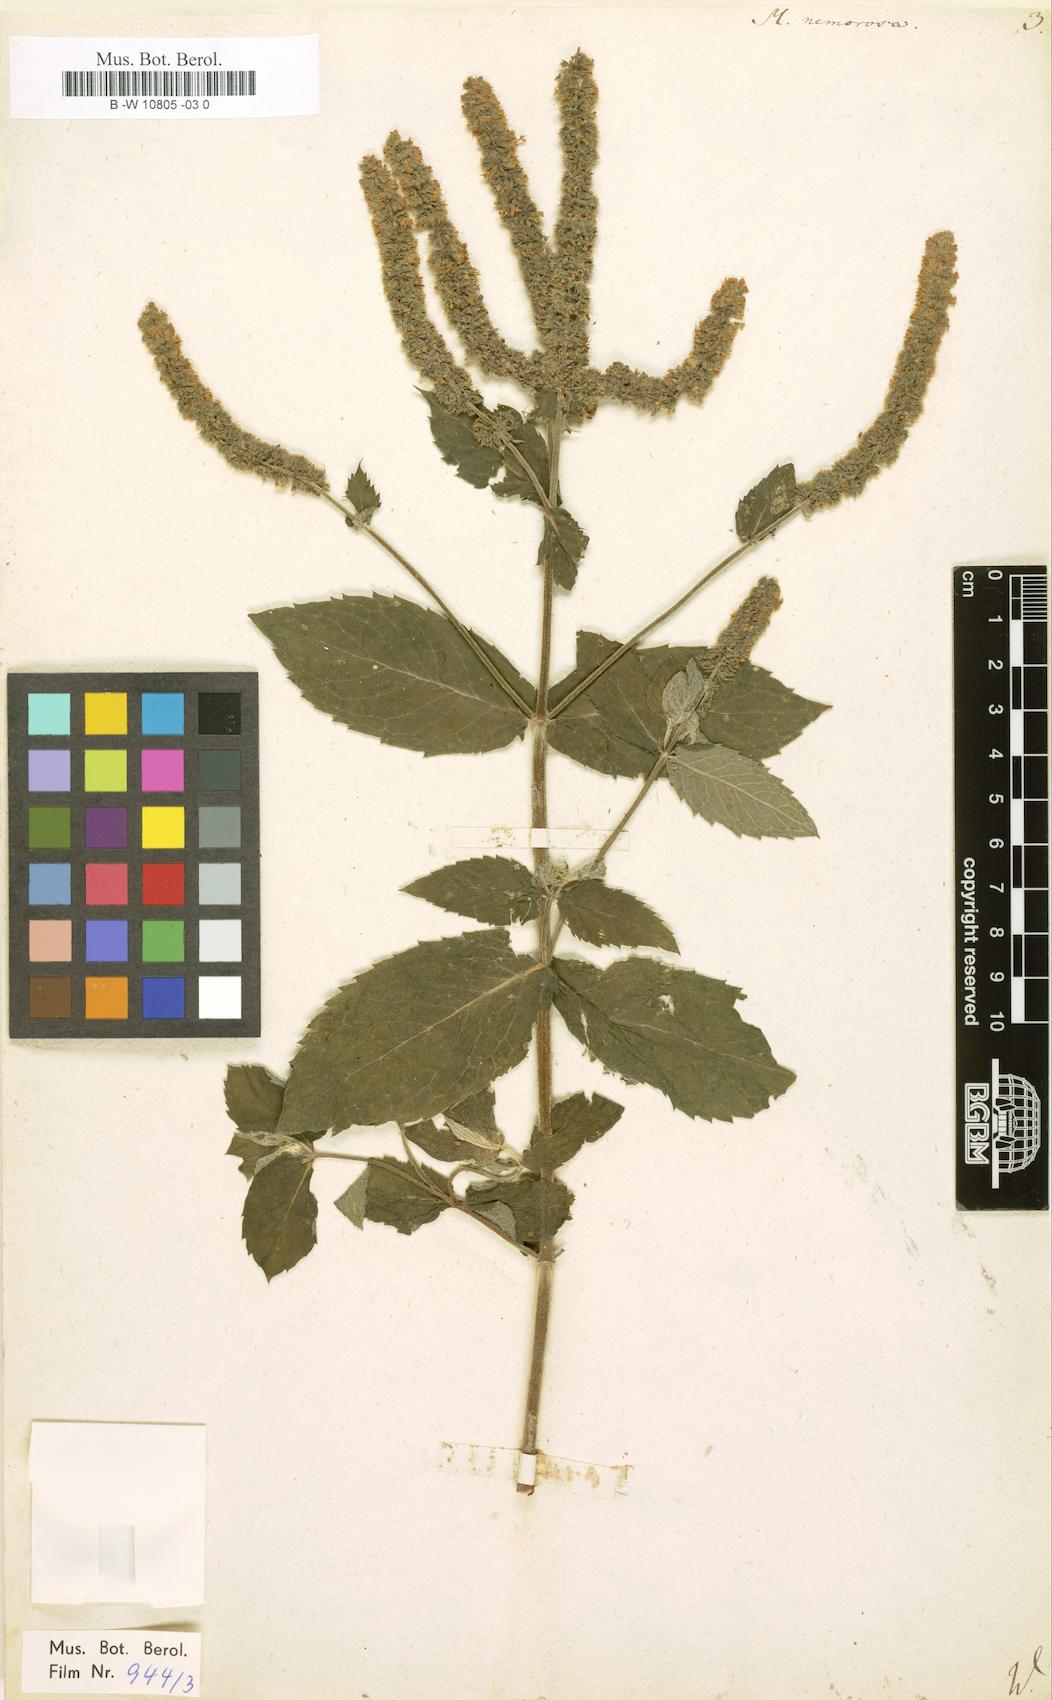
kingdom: Plantae
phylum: Tracheophyta
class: Magnoliopsida
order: Lamiales
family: Lamiaceae
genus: Mentha
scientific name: Mentha
